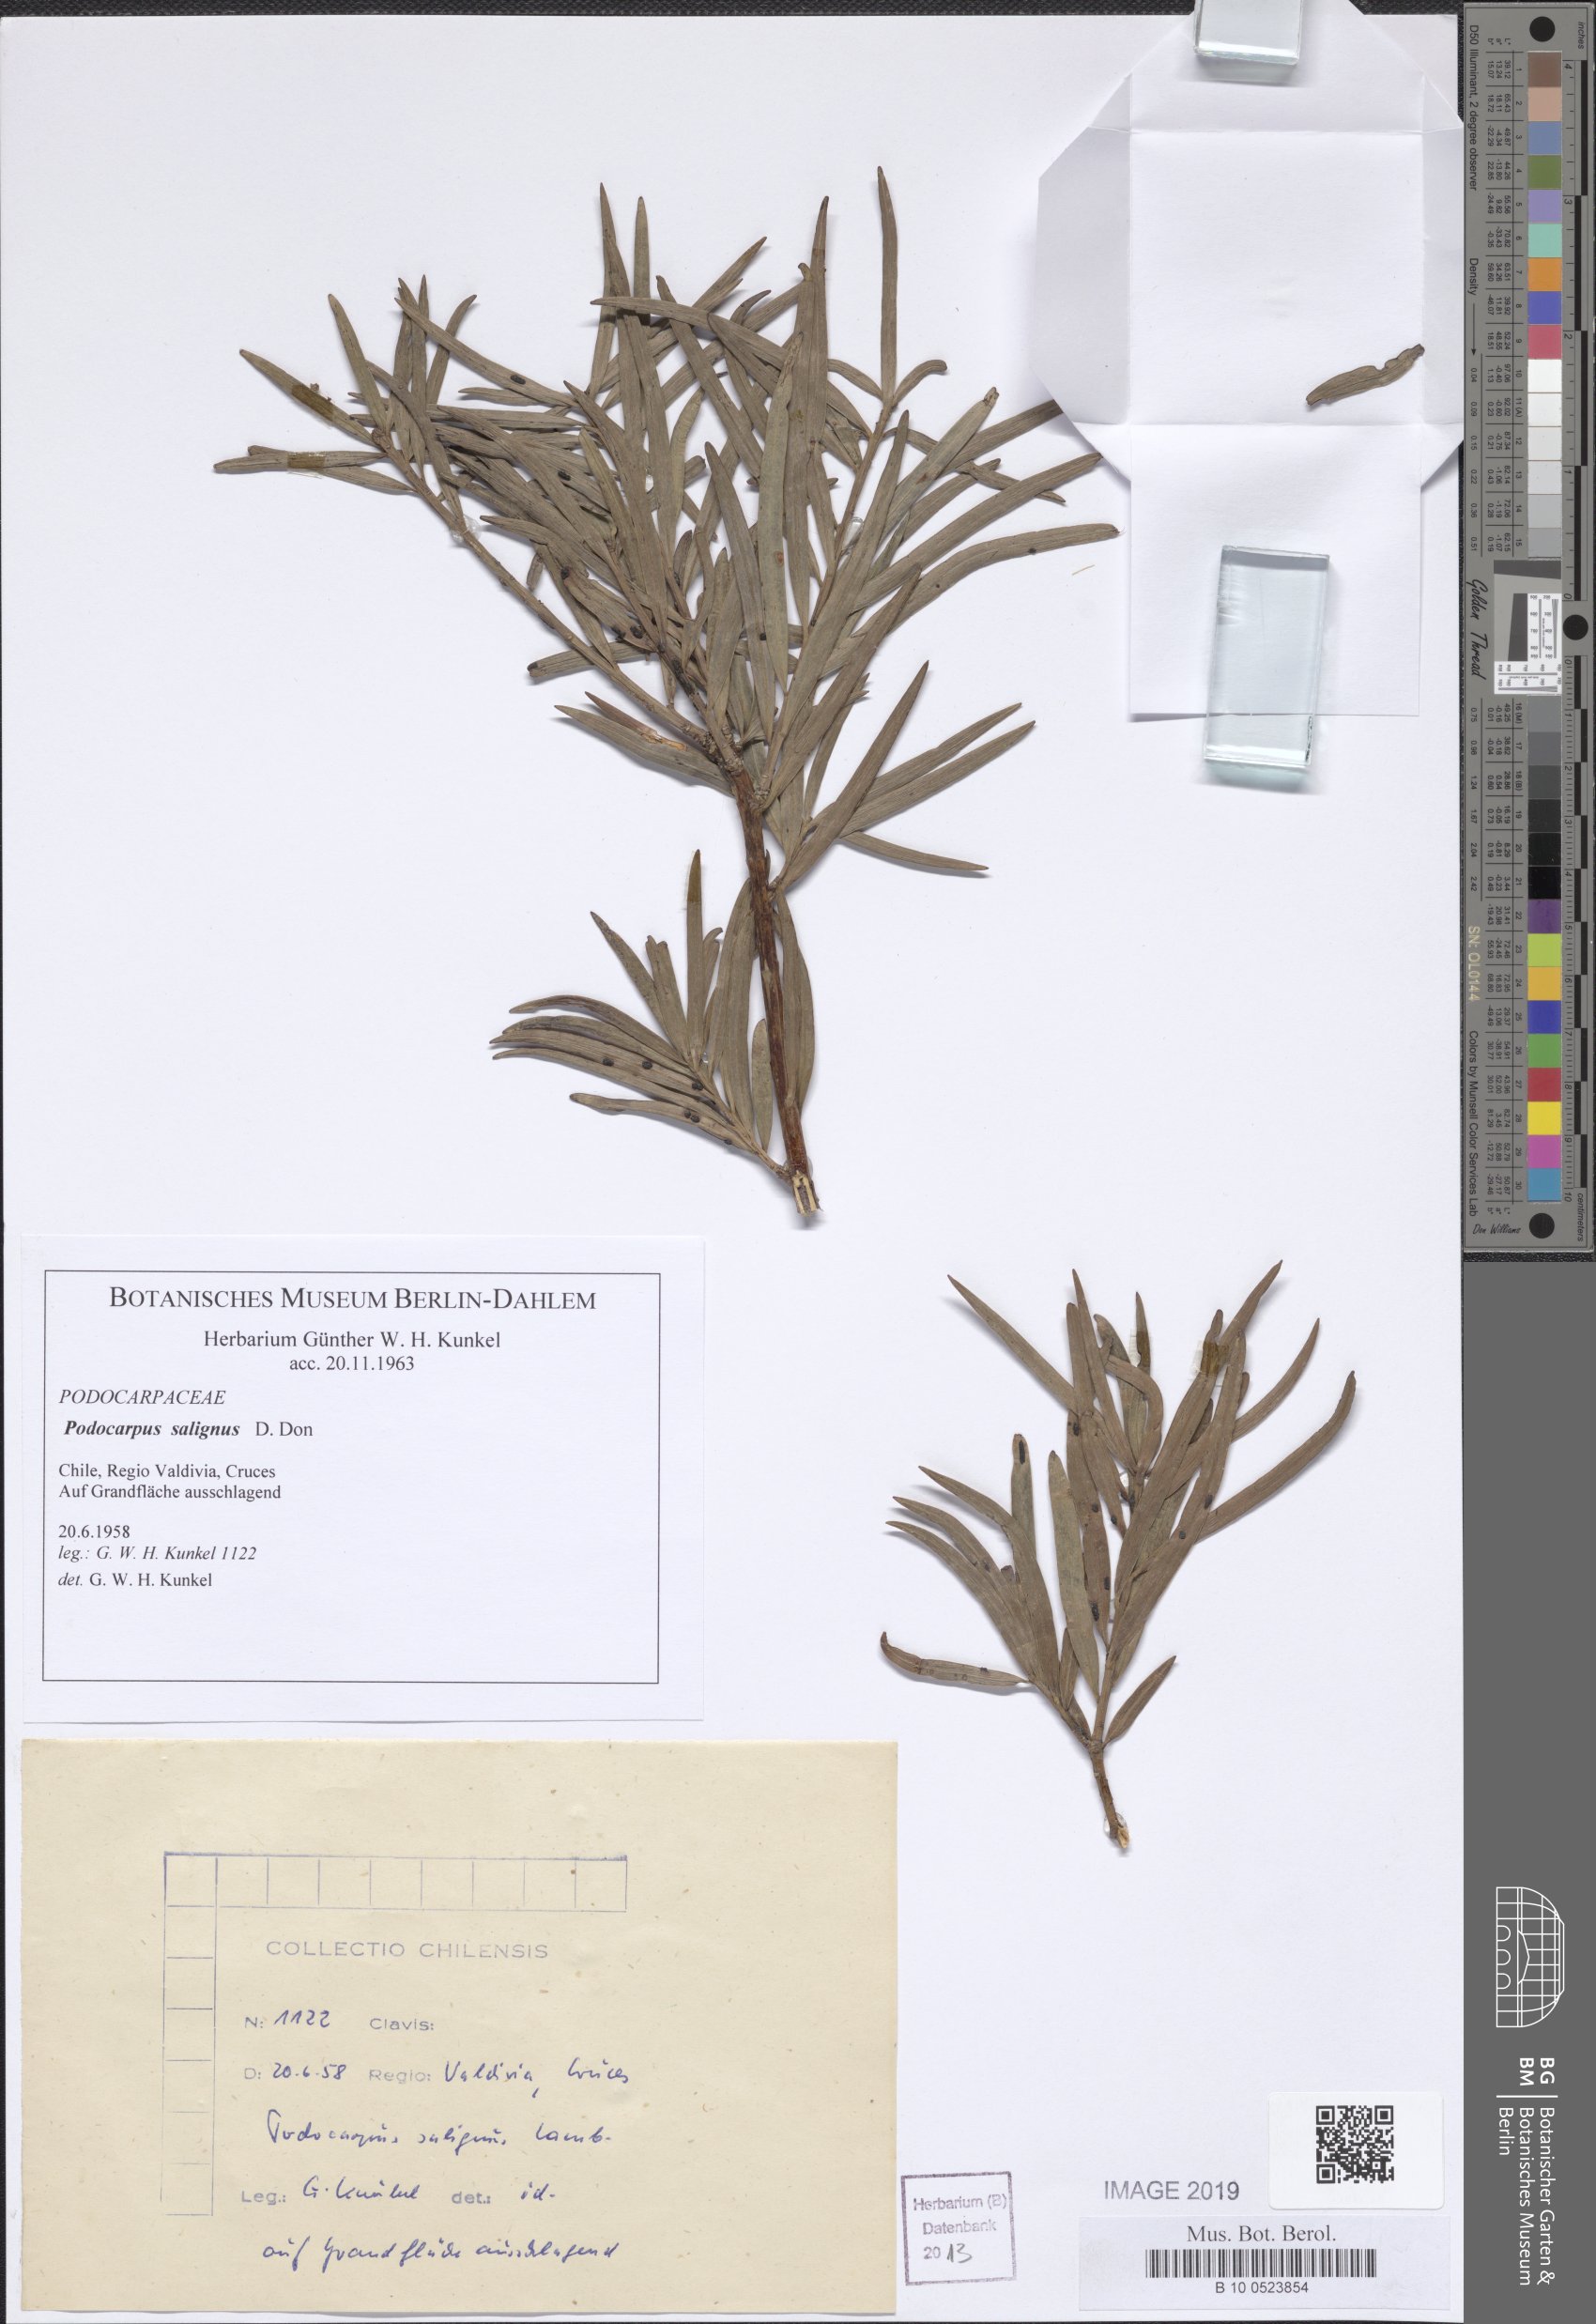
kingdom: Plantae
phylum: Tracheophyta
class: Pinopsida
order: Pinales
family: Podocarpaceae
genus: Podocarpus
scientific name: Podocarpus salignus
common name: Willow-leaf podocarp
